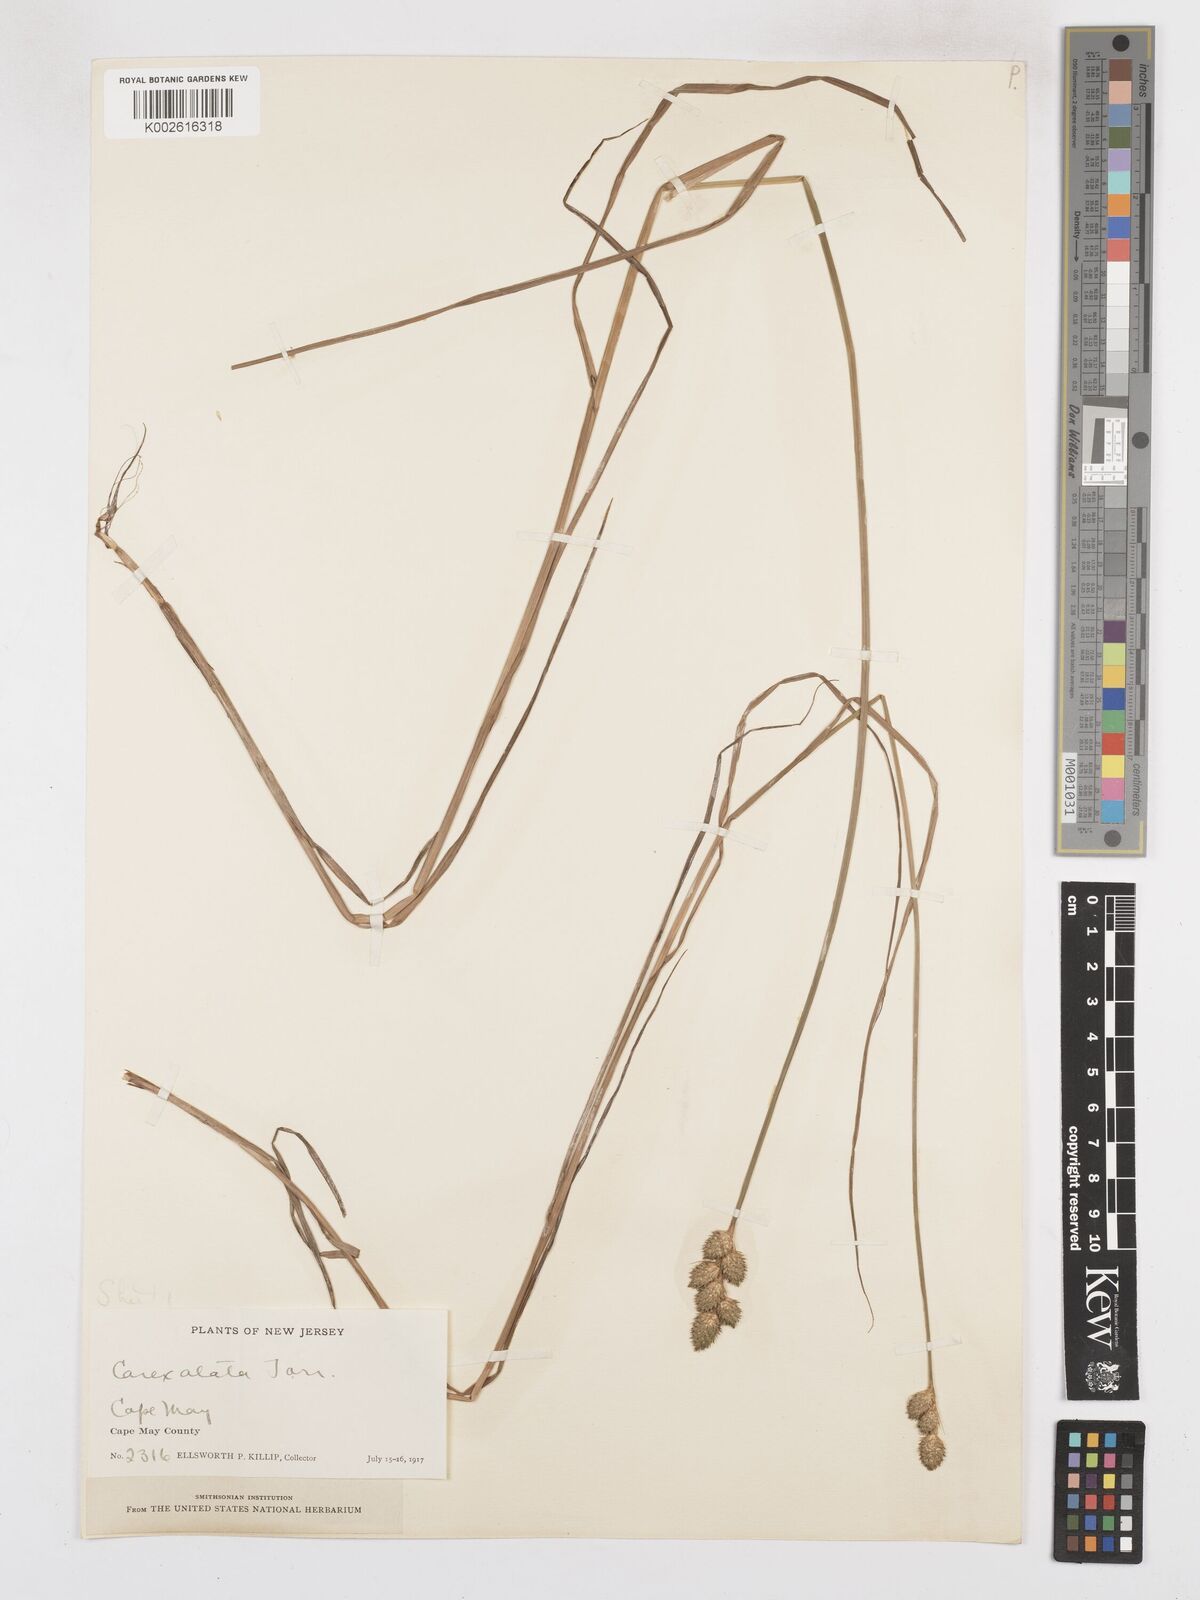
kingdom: Plantae
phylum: Tracheophyta
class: Liliopsida
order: Poales
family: Cyperaceae
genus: Carex
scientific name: Carex alata
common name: Broad-winged sedge
